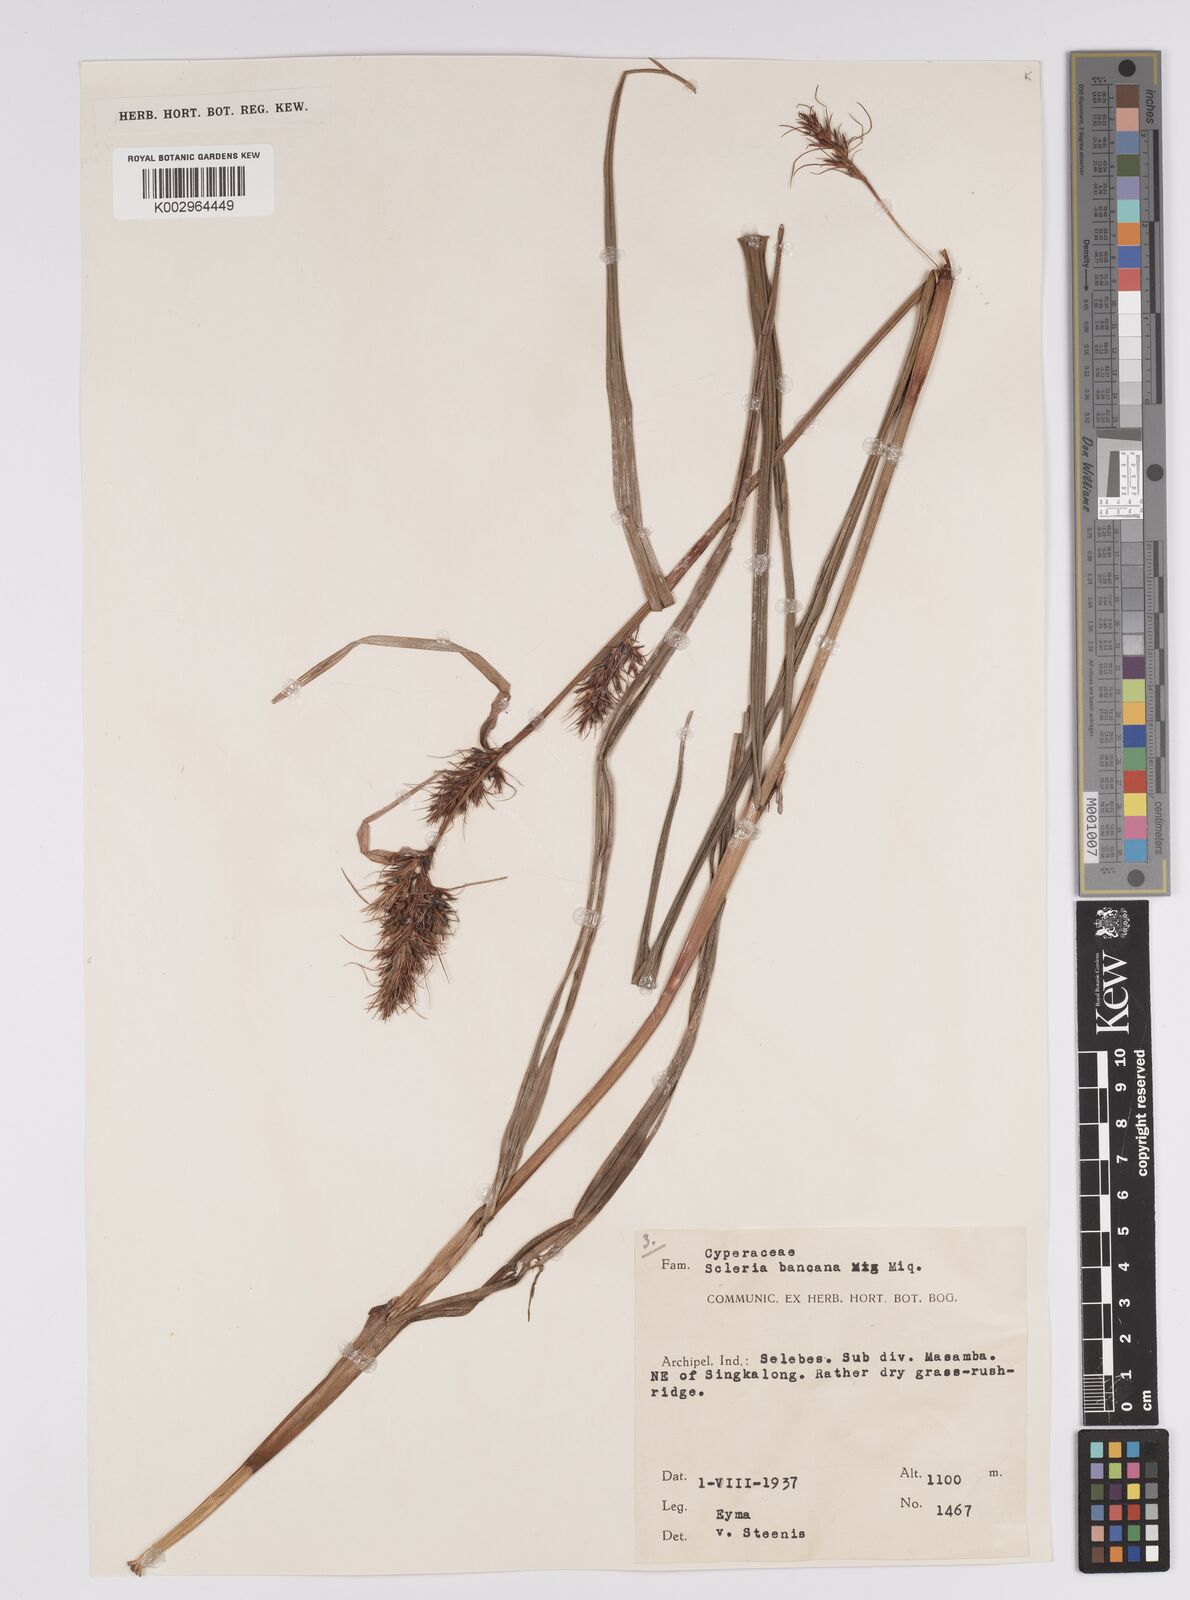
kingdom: Plantae
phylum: Tracheophyta
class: Liliopsida
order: Poales
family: Cyperaceae
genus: Scleria
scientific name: Scleria ciliaris
